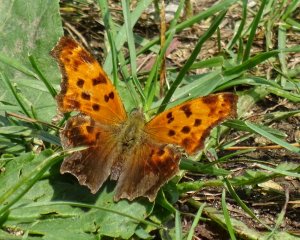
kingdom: Animalia
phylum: Arthropoda
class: Insecta
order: Lepidoptera
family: Nymphalidae
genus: Polygonia
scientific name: Polygonia progne
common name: Gray Comma
